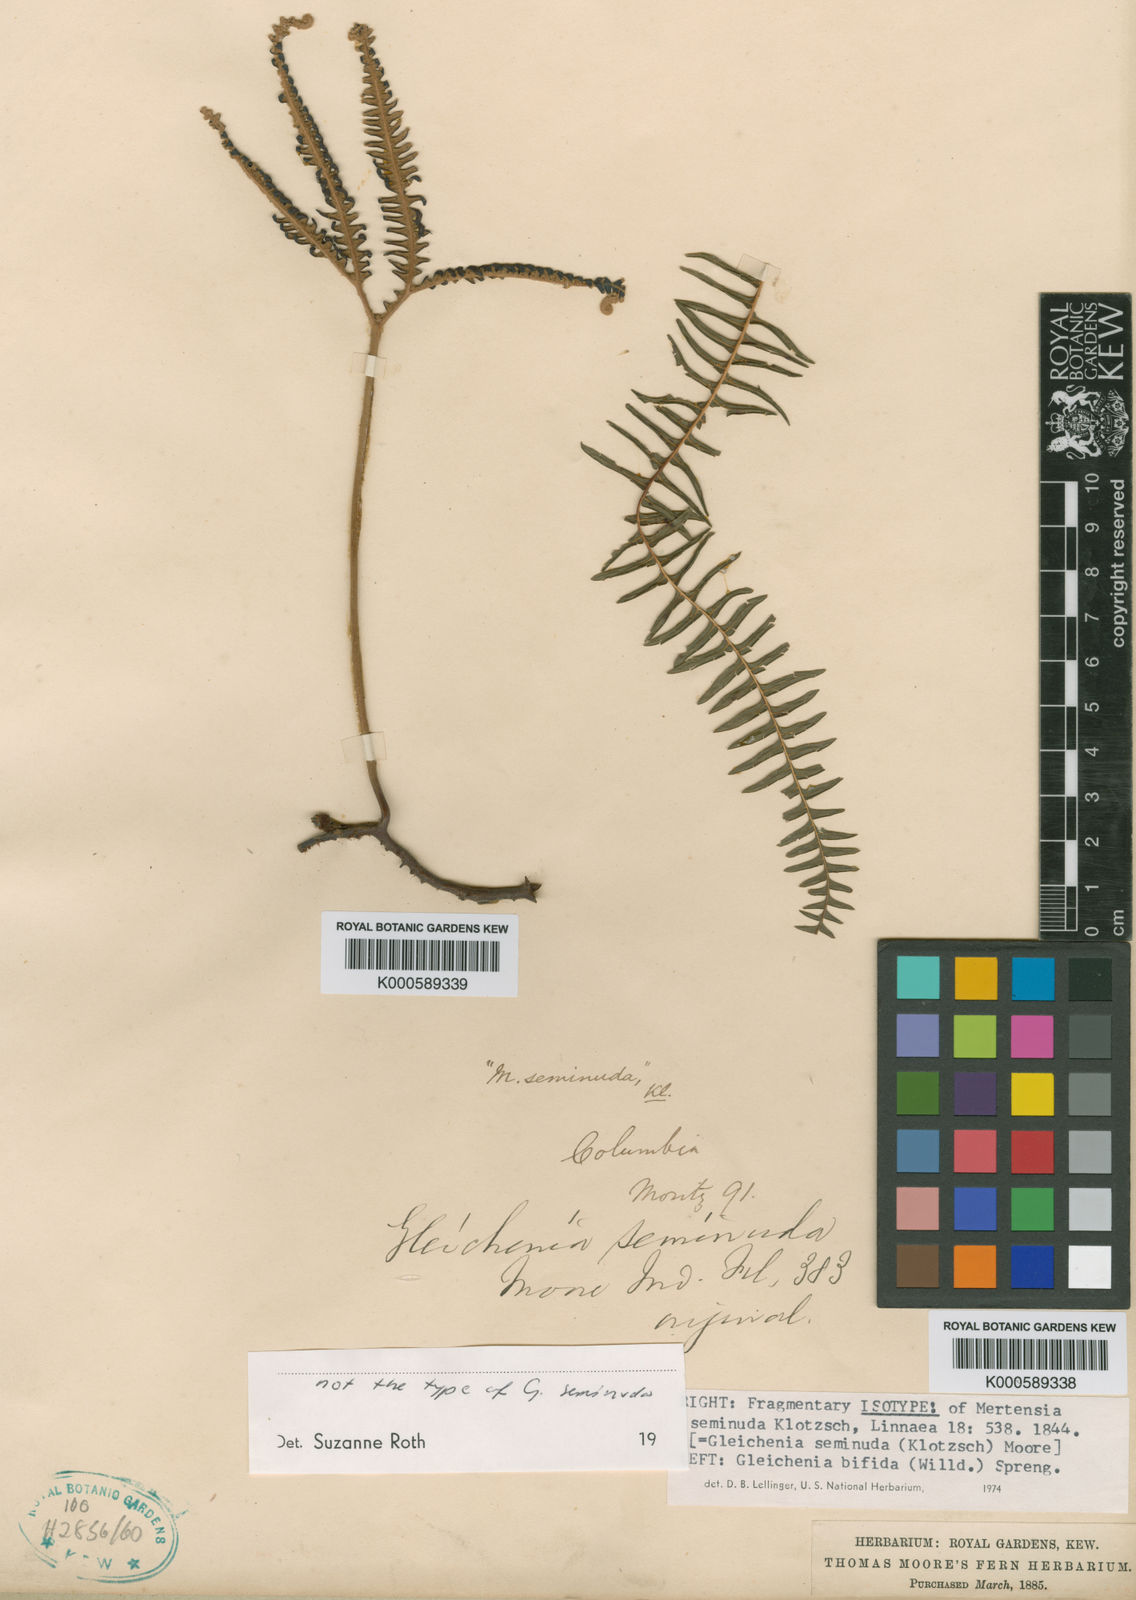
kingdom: Plantae
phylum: Tracheophyta
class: Polypodiopsida
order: Gleicheniales
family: Gleicheniaceae
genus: Sticherus
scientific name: Sticherus
